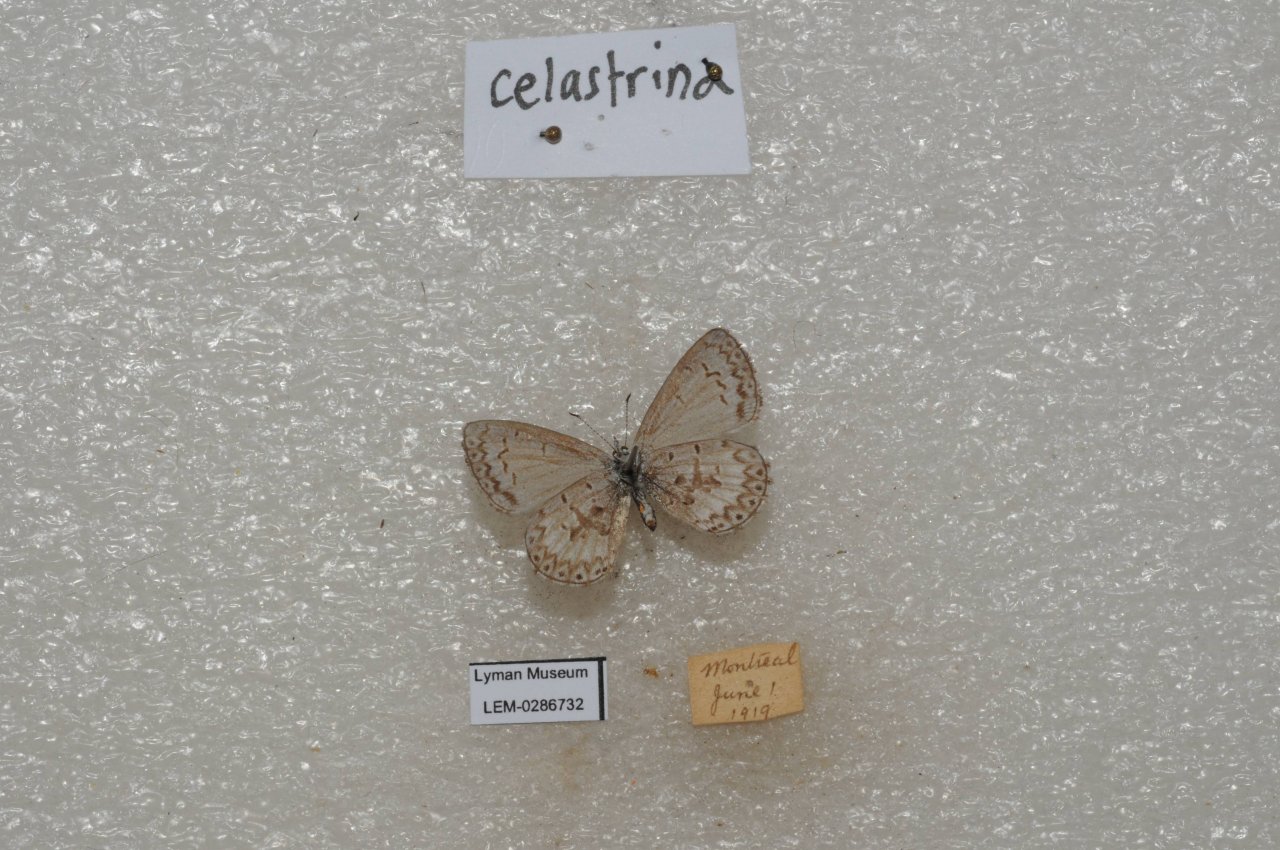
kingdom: Animalia
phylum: Arthropoda
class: Insecta
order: Lepidoptera
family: Lycaenidae
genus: Celastrina
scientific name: Celastrina
